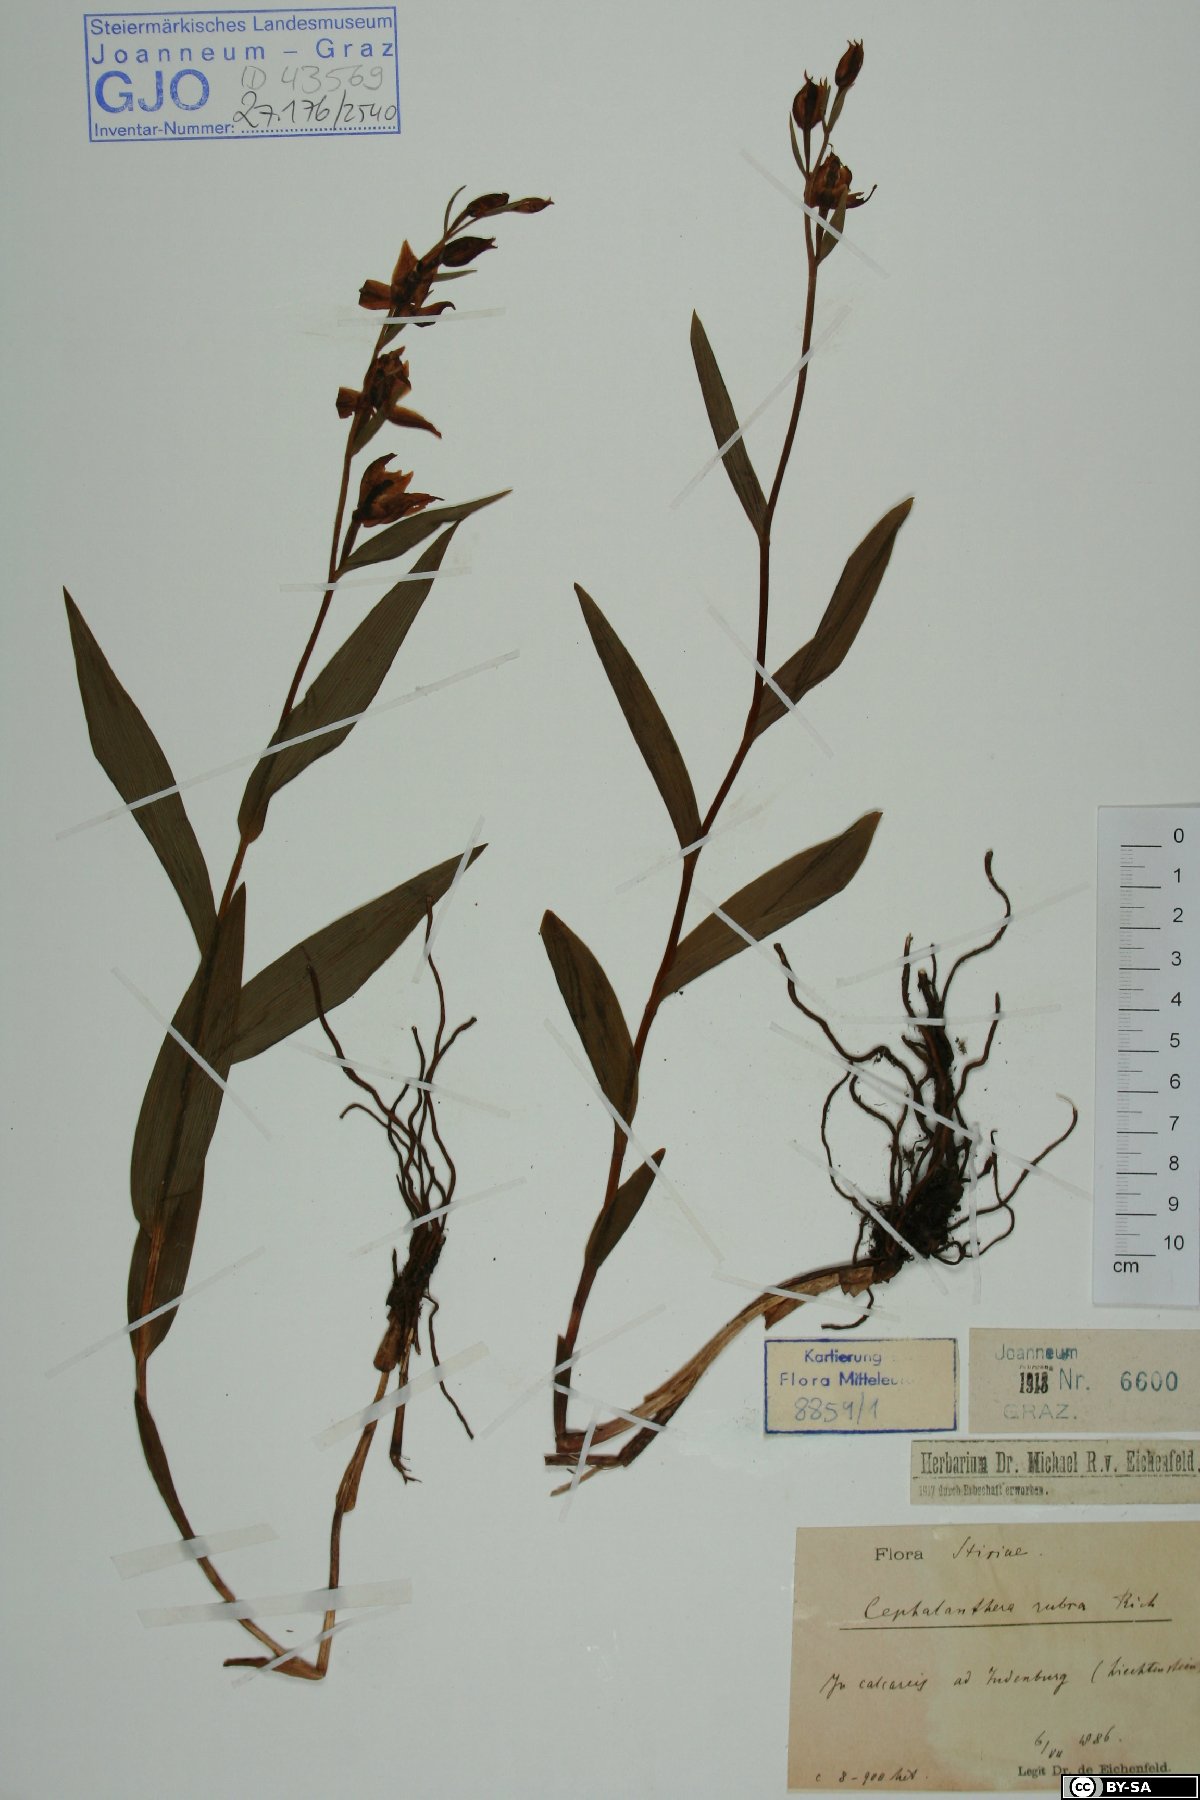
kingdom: Plantae
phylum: Tracheophyta
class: Liliopsida
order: Asparagales
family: Orchidaceae
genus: Cephalanthera
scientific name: Cephalanthera rubra
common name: Red helleborine
